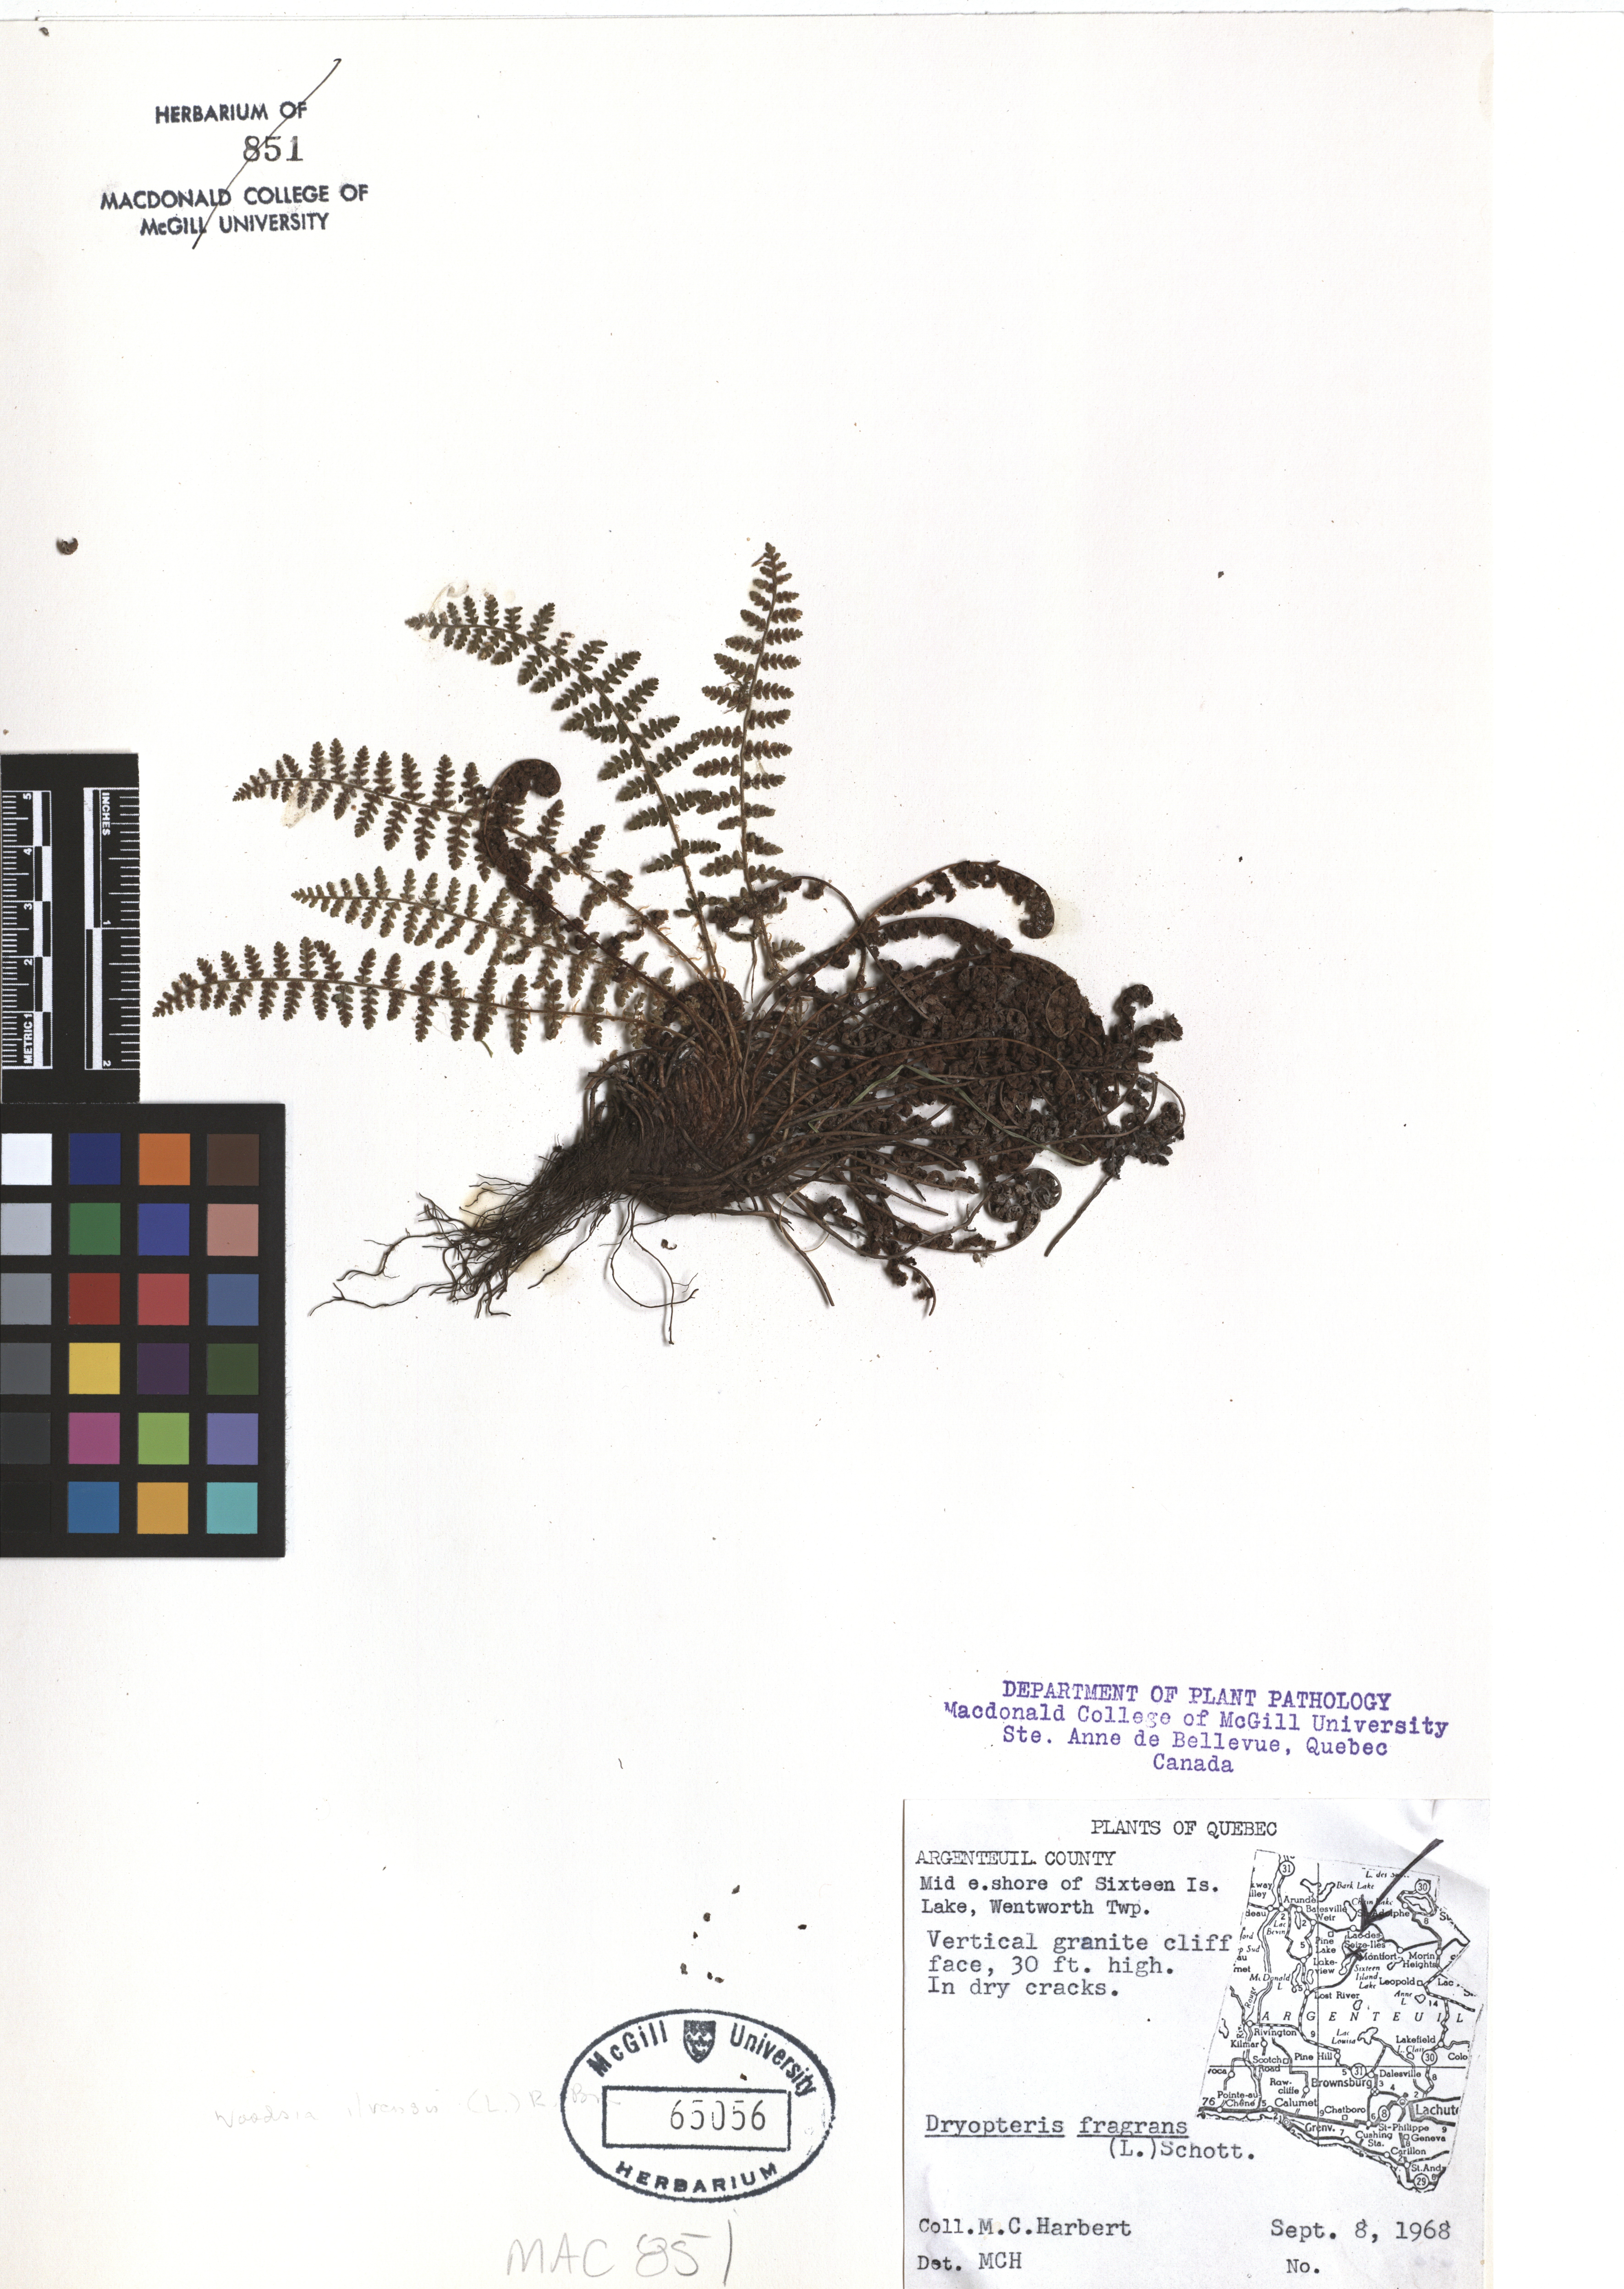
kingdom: Plantae
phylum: Tracheophyta
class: Polypodiopsida
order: Polypodiales
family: Dryopteridaceae
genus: Dryopteris
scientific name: Dryopteris fragrans
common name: Fragrant wood fern
